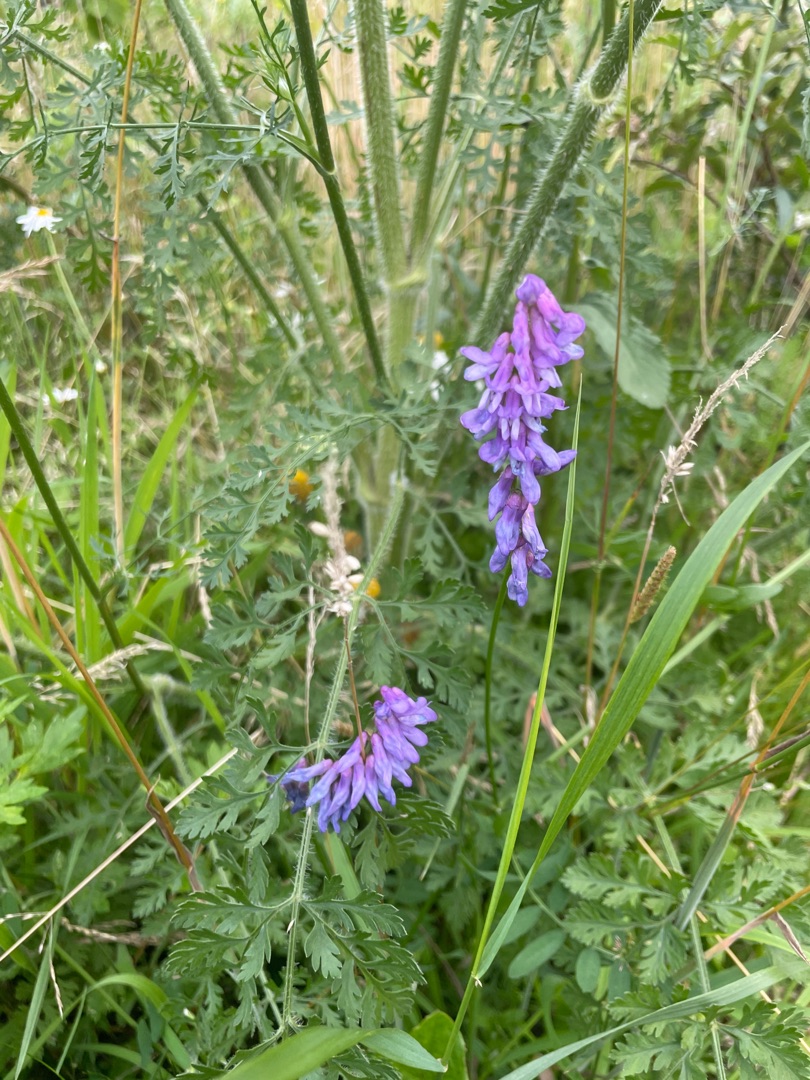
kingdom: Plantae
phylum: Tracheophyta
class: Magnoliopsida
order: Fabales
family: Fabaceae
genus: Vicia
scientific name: Vicia cracca
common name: Muse-vikke
